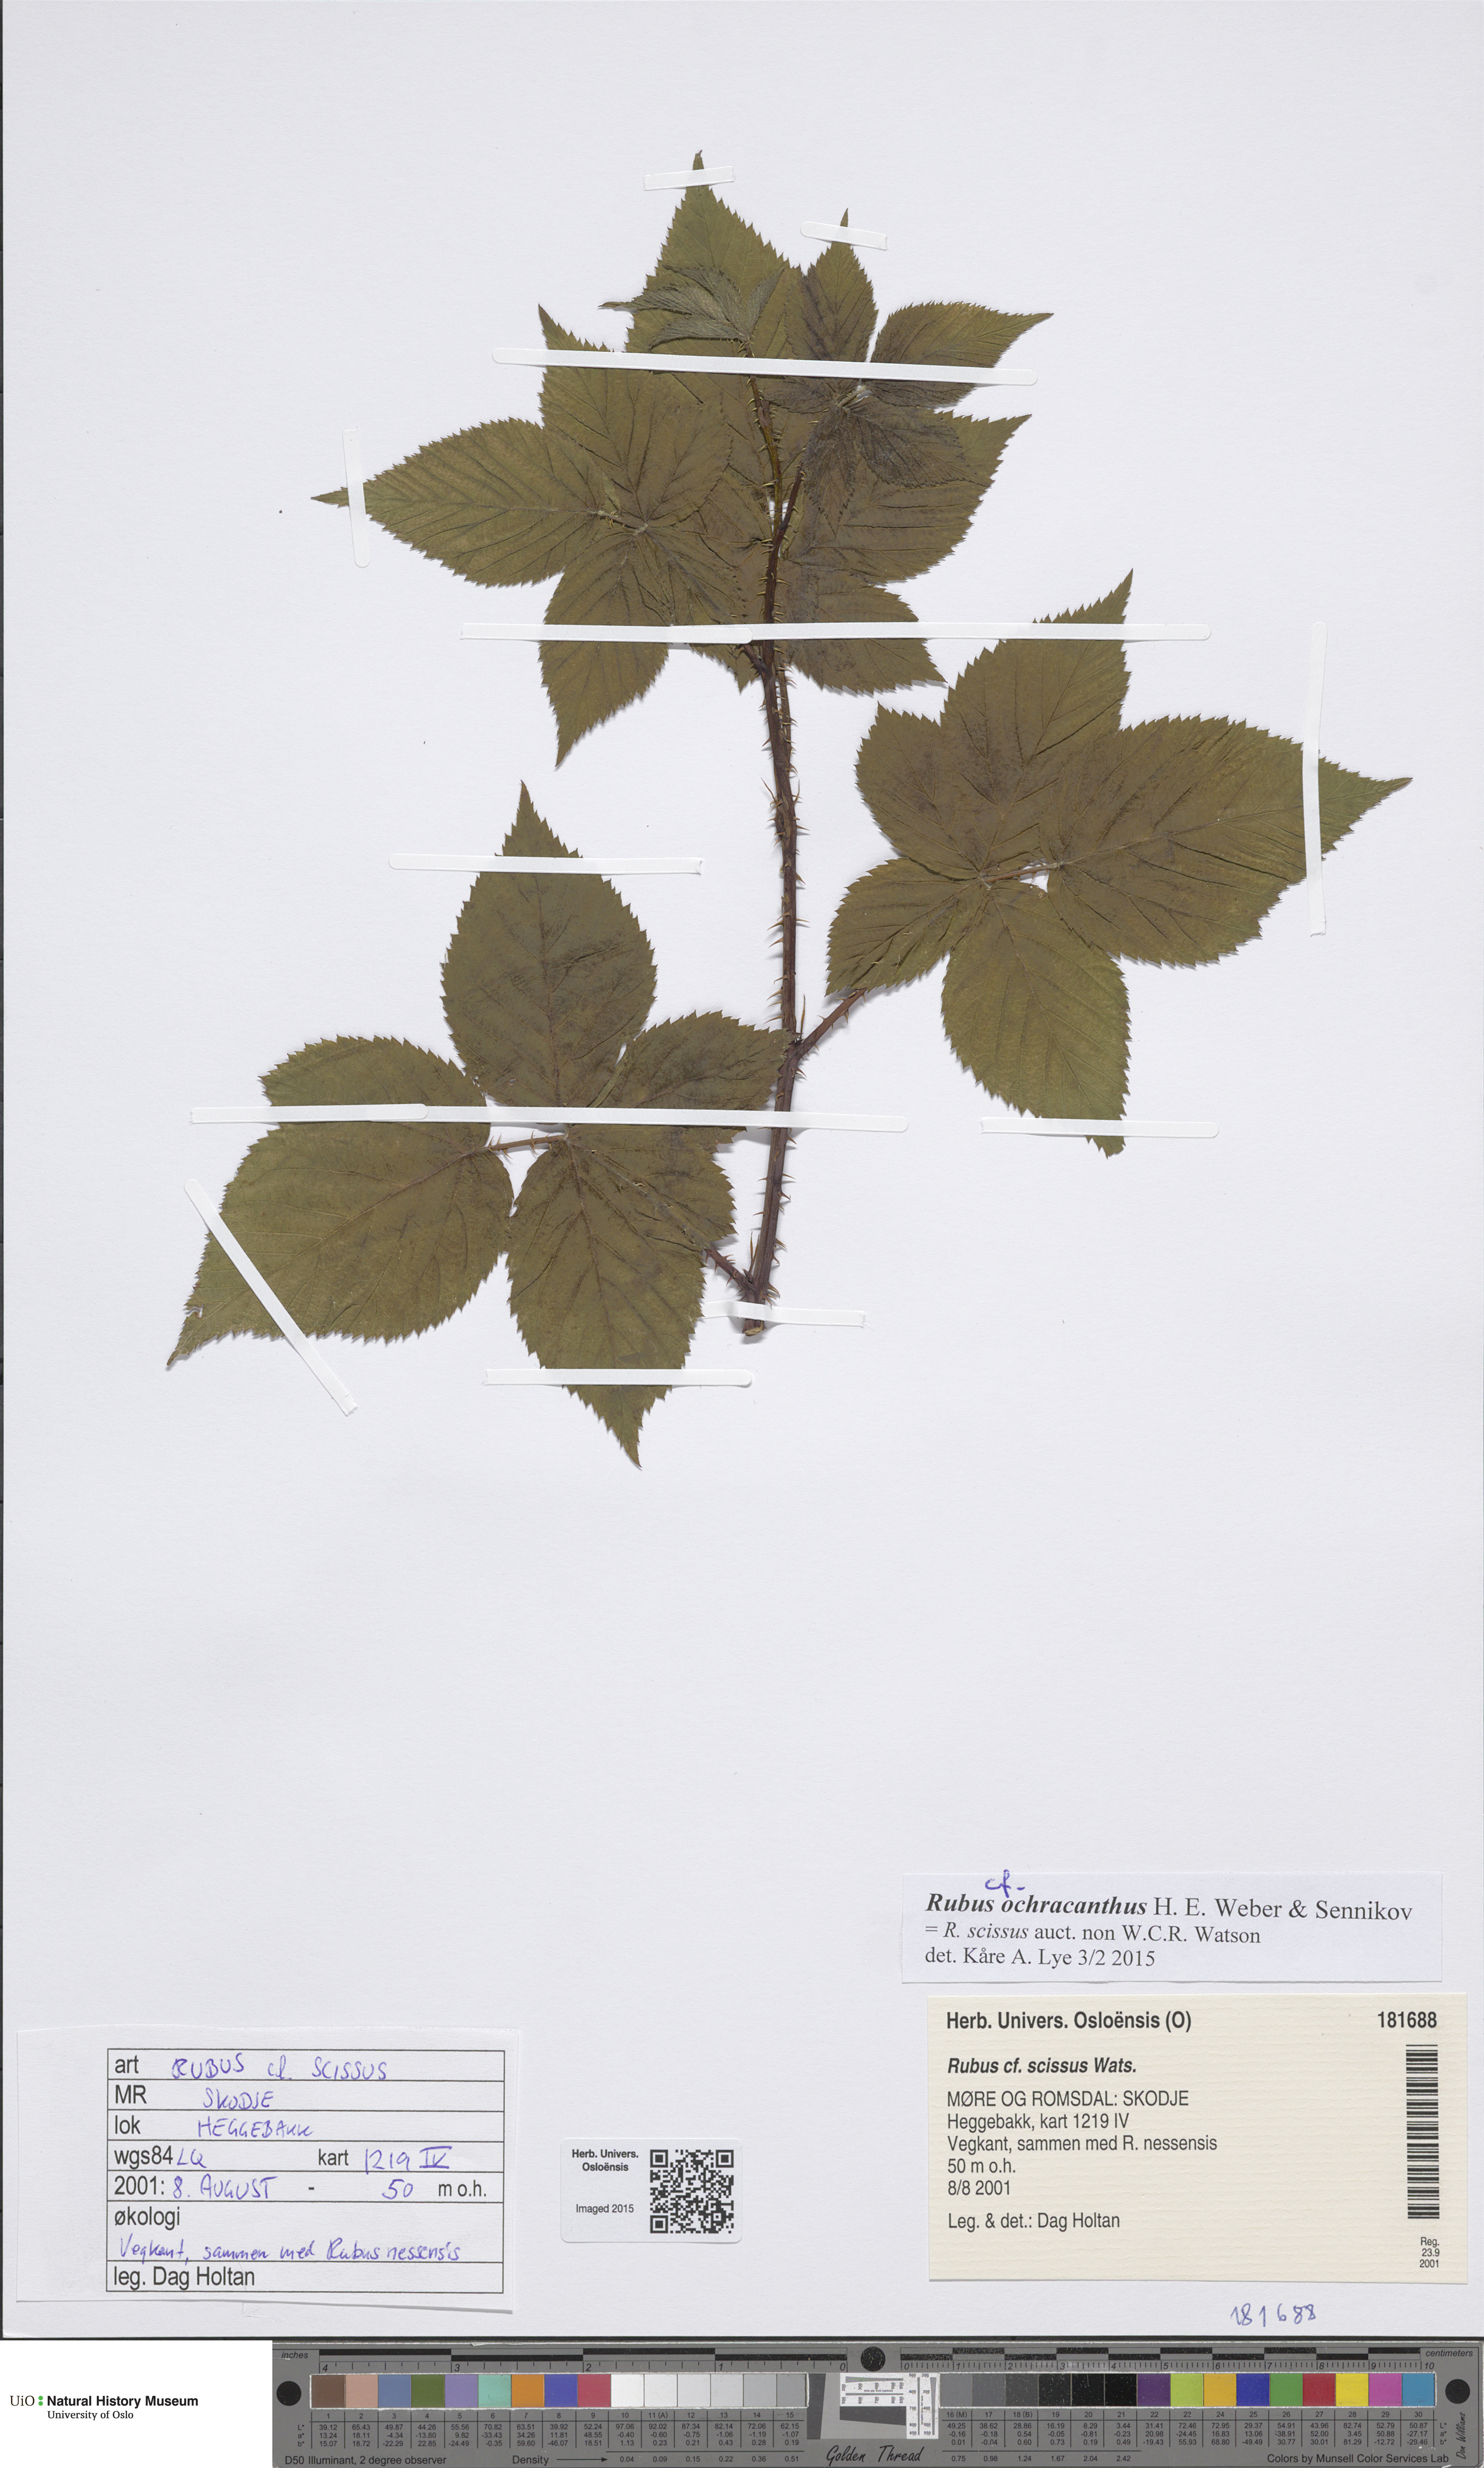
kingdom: Plantae
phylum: Tracheophyta
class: Magnoliopsida
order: Rosales
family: Rosaceae
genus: Rubus
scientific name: Rubus scissus
